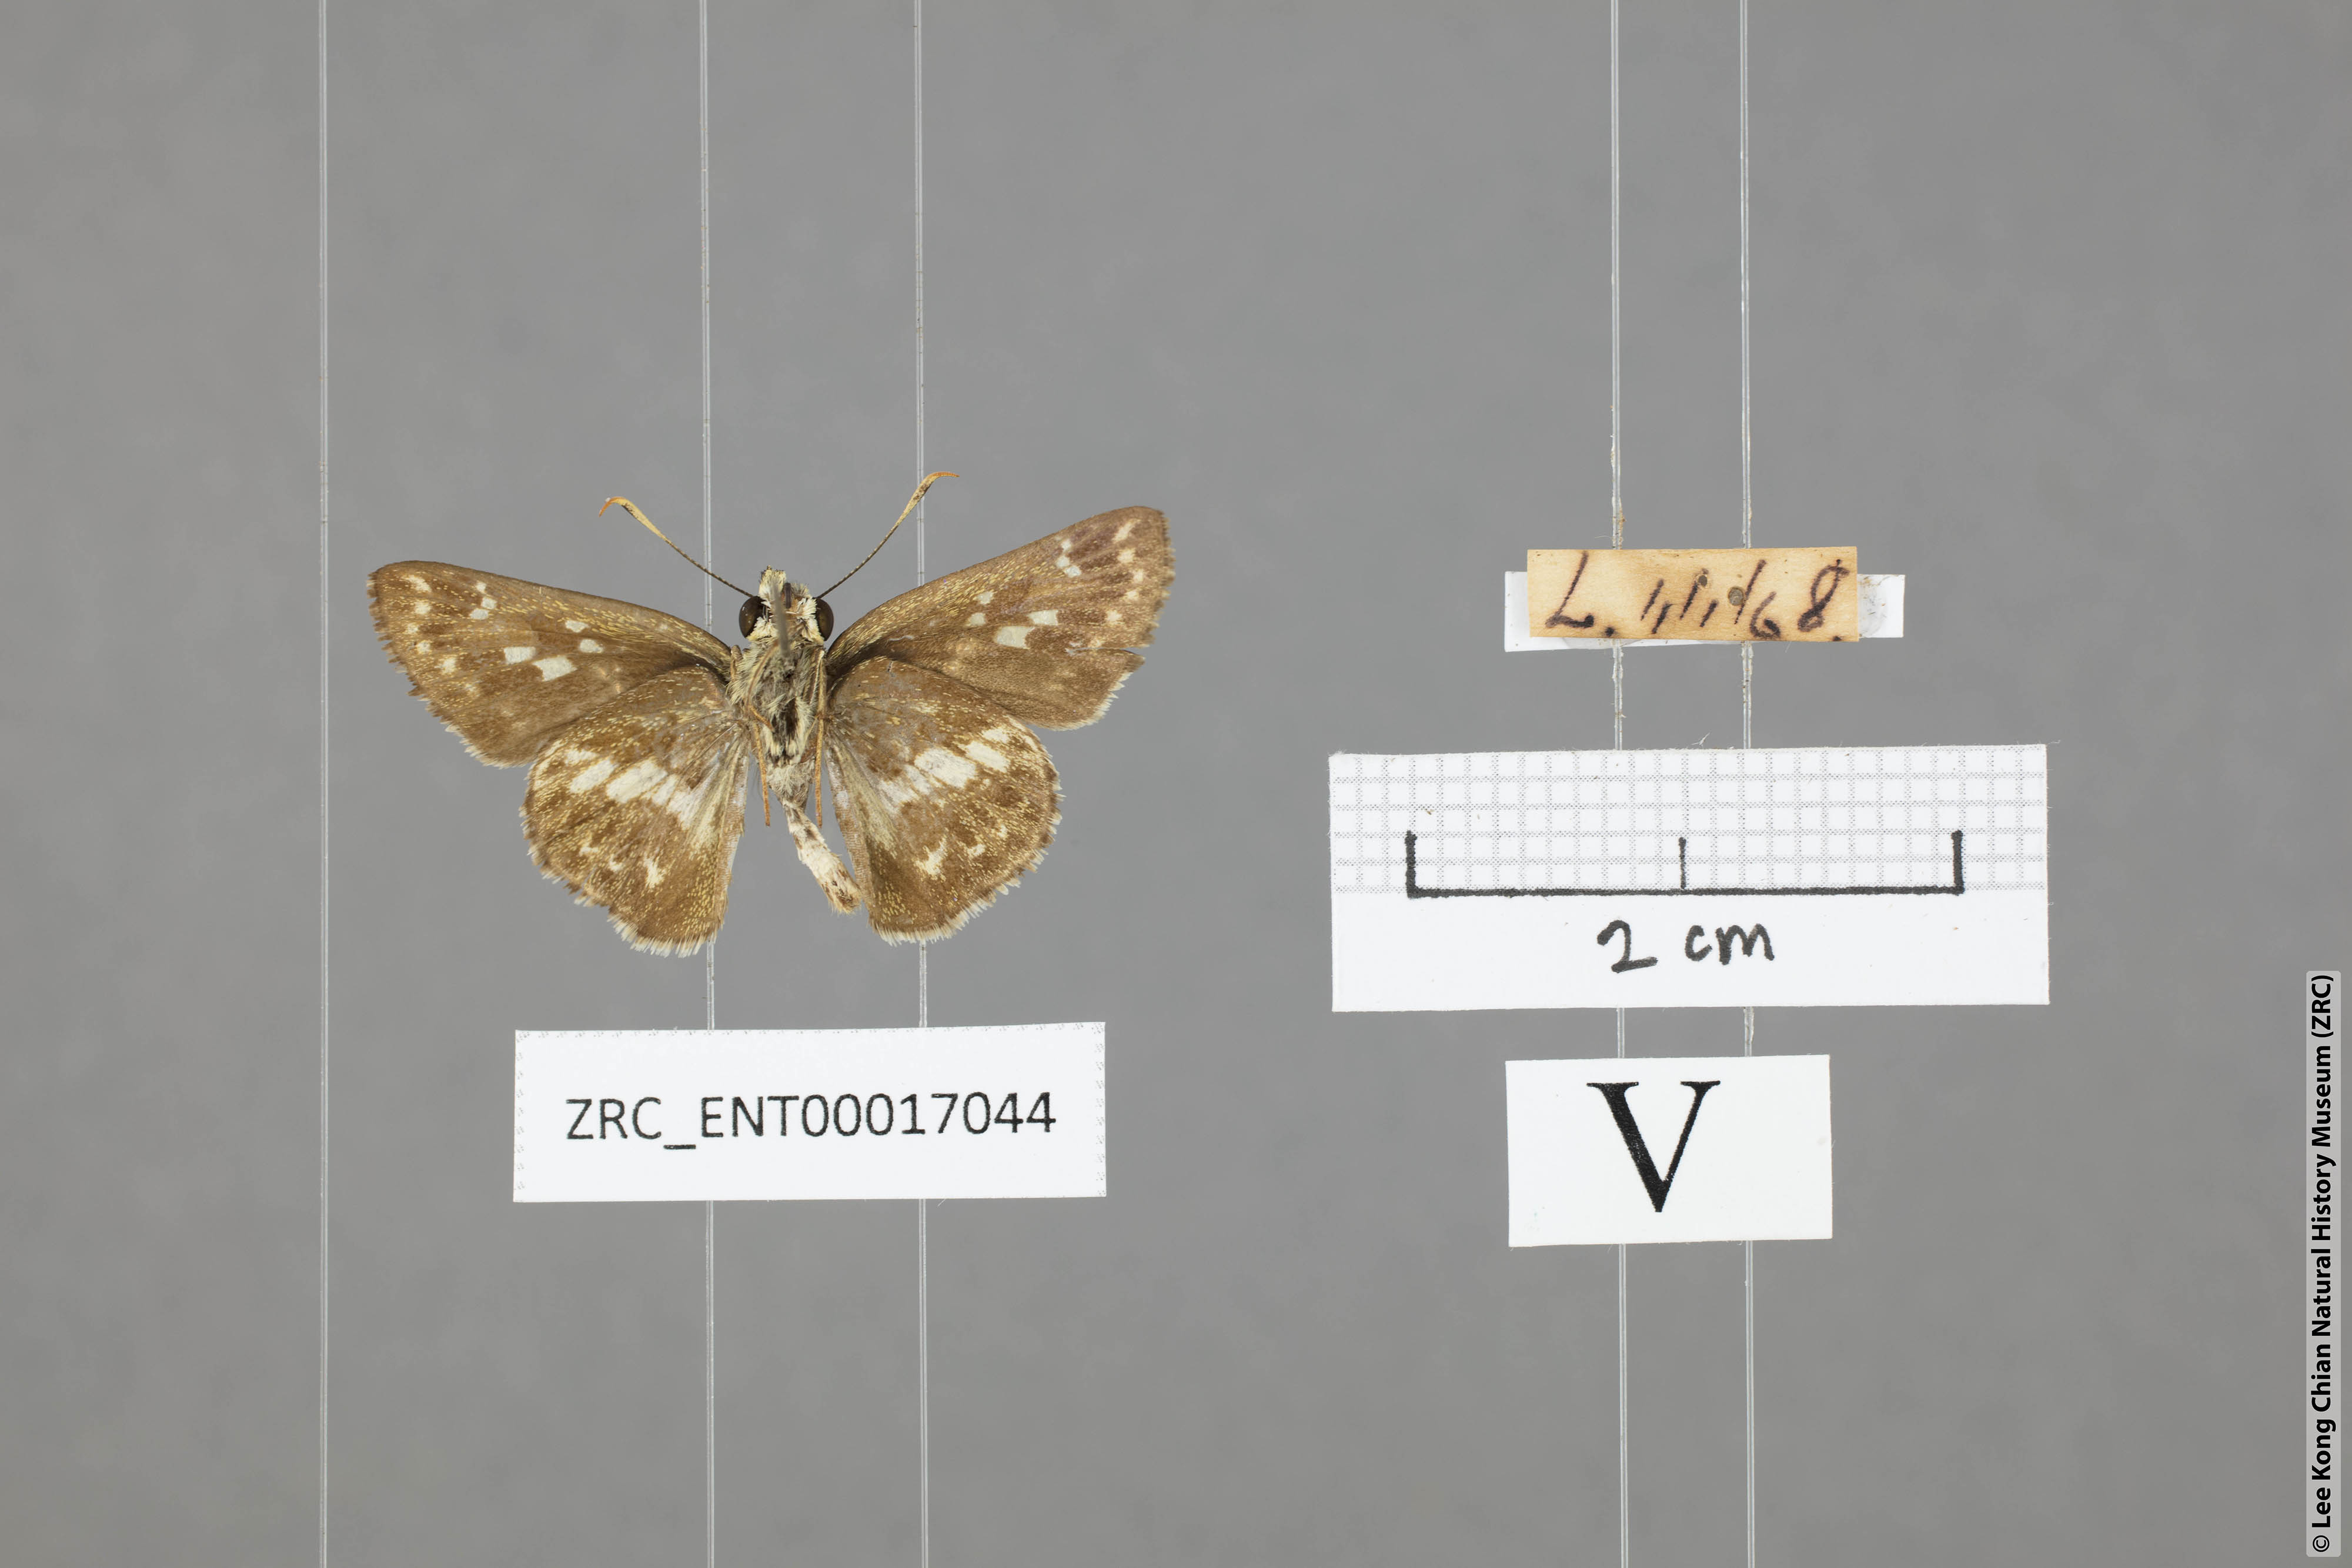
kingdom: Animalia
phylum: Arthropoda
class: Insecta
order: Lepidoptera
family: Hesperiidae
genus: Halpe
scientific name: Halpe porus
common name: Moore's ace
